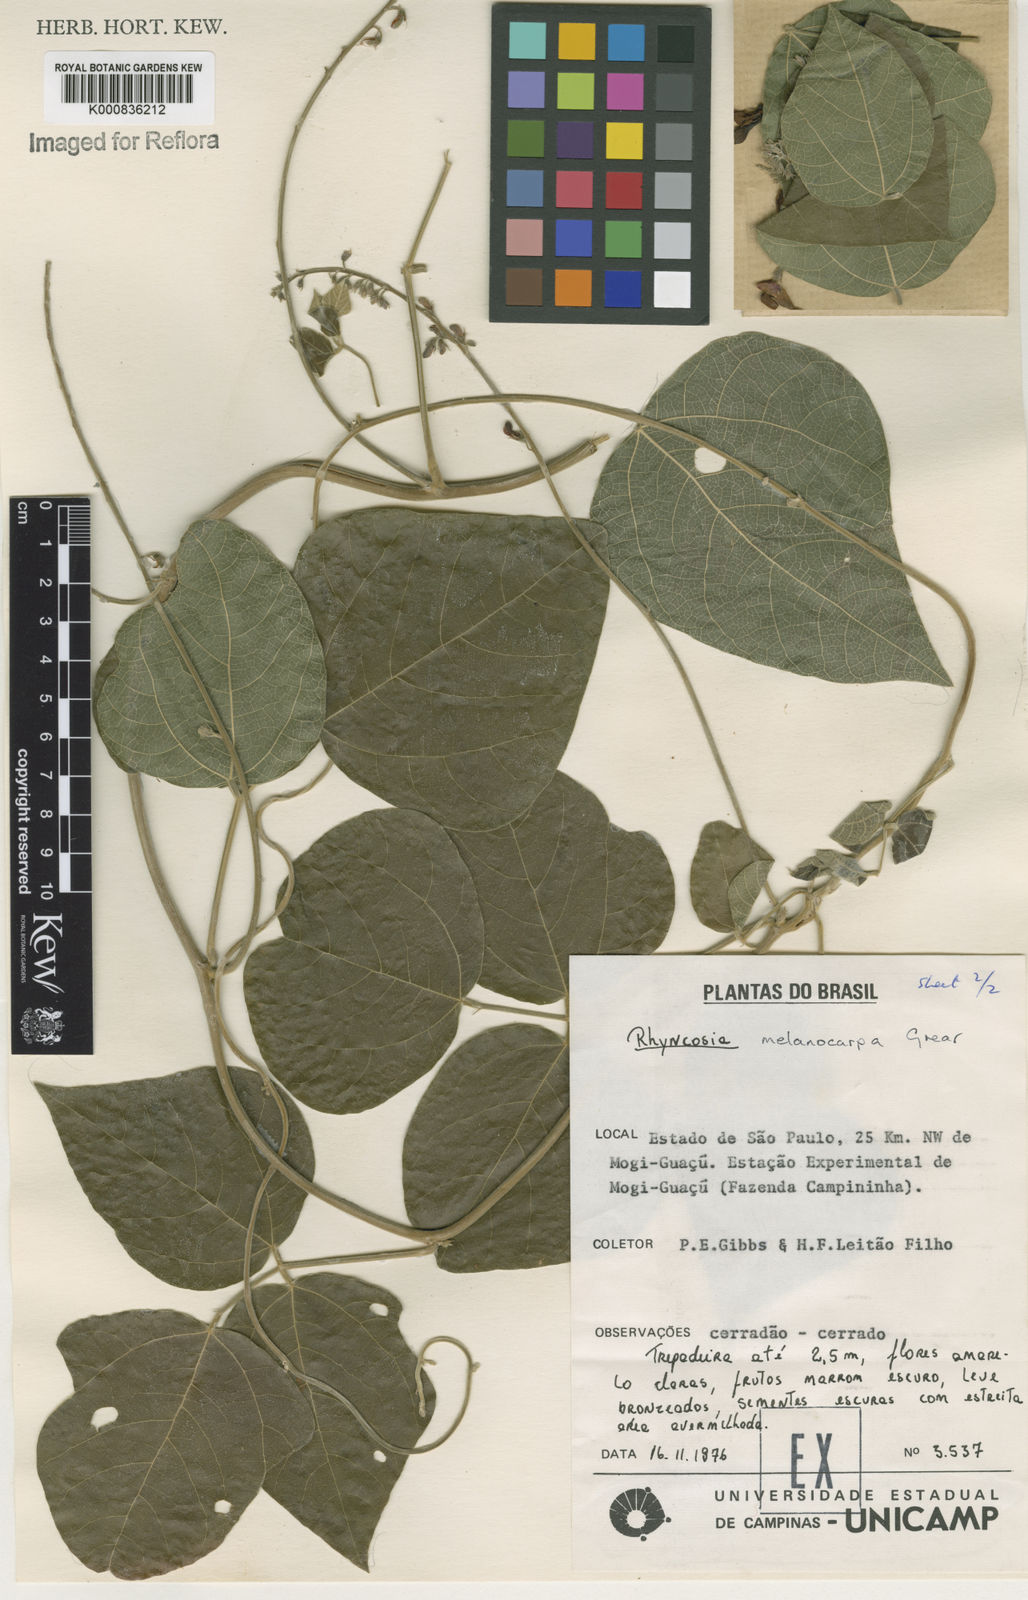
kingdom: Plantae
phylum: Tracheophyta
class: Magnoliopsida
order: Fabales
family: Fabaceae
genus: Rhynchosia
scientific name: Rhynchosia melanocarpa
